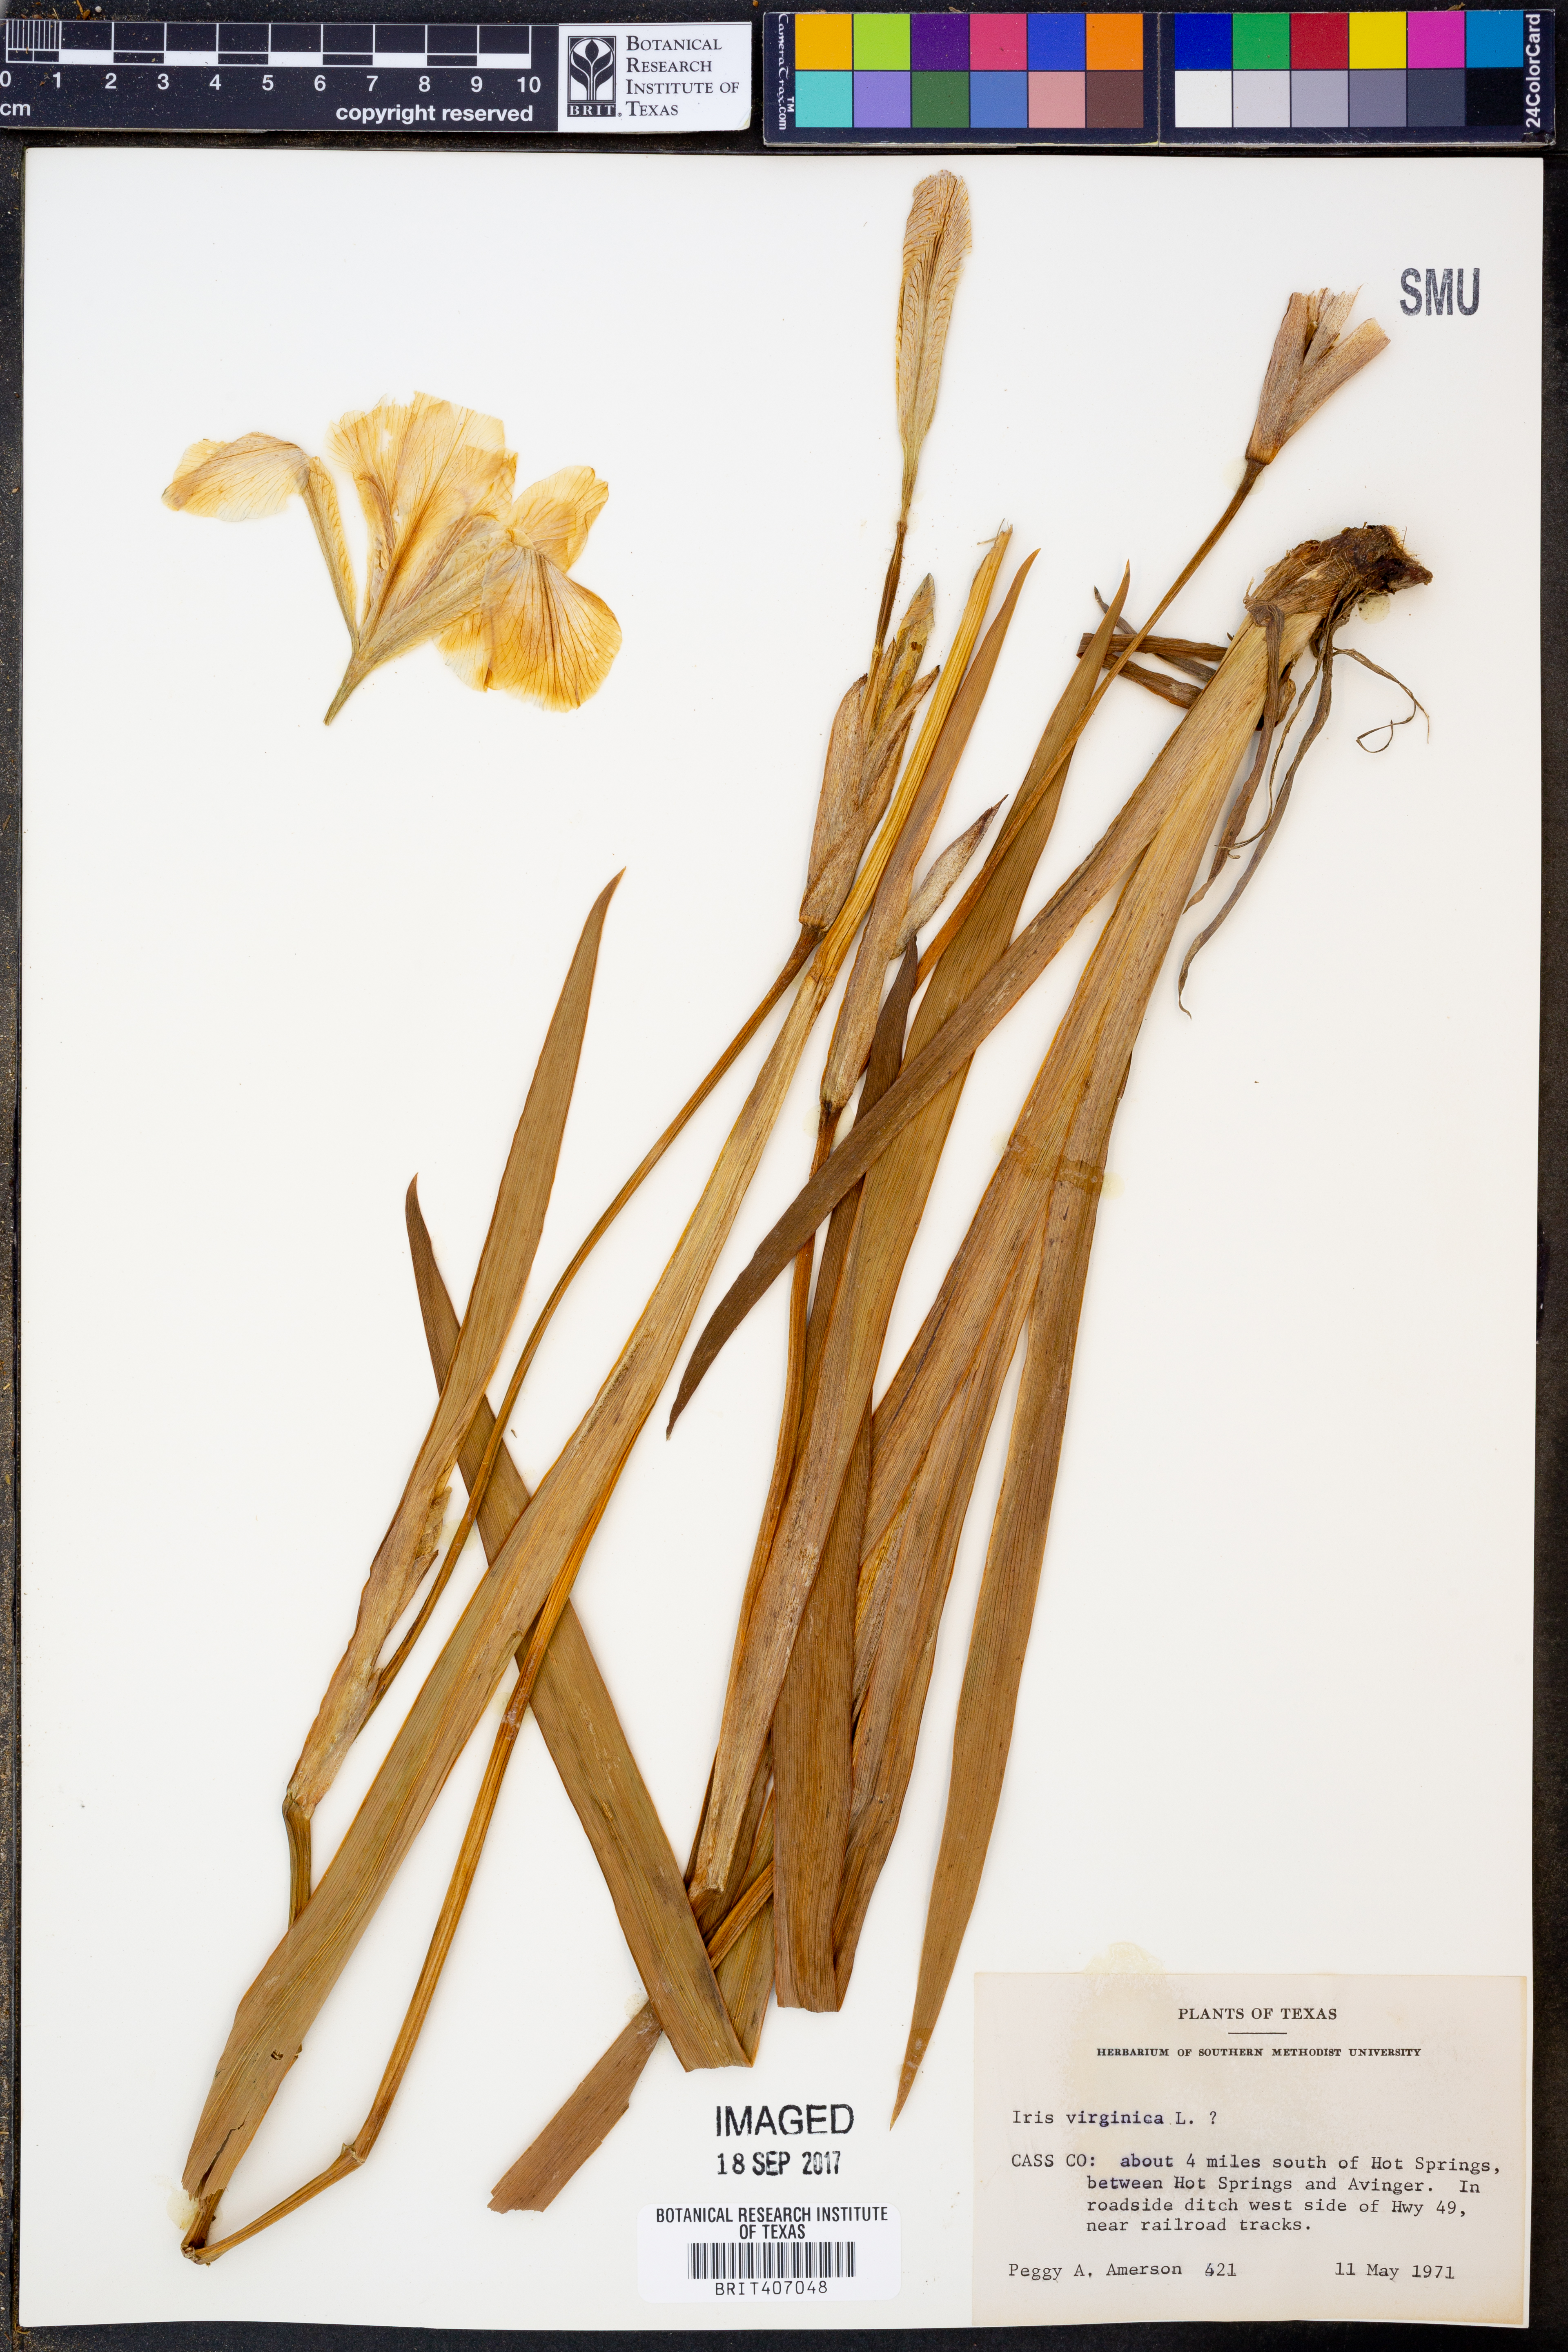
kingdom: Plantae
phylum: Tracheophyta
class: Liliopsida
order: Asparagales
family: Iridaceae
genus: Iris
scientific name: Iris virginica
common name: Southern blue flag
